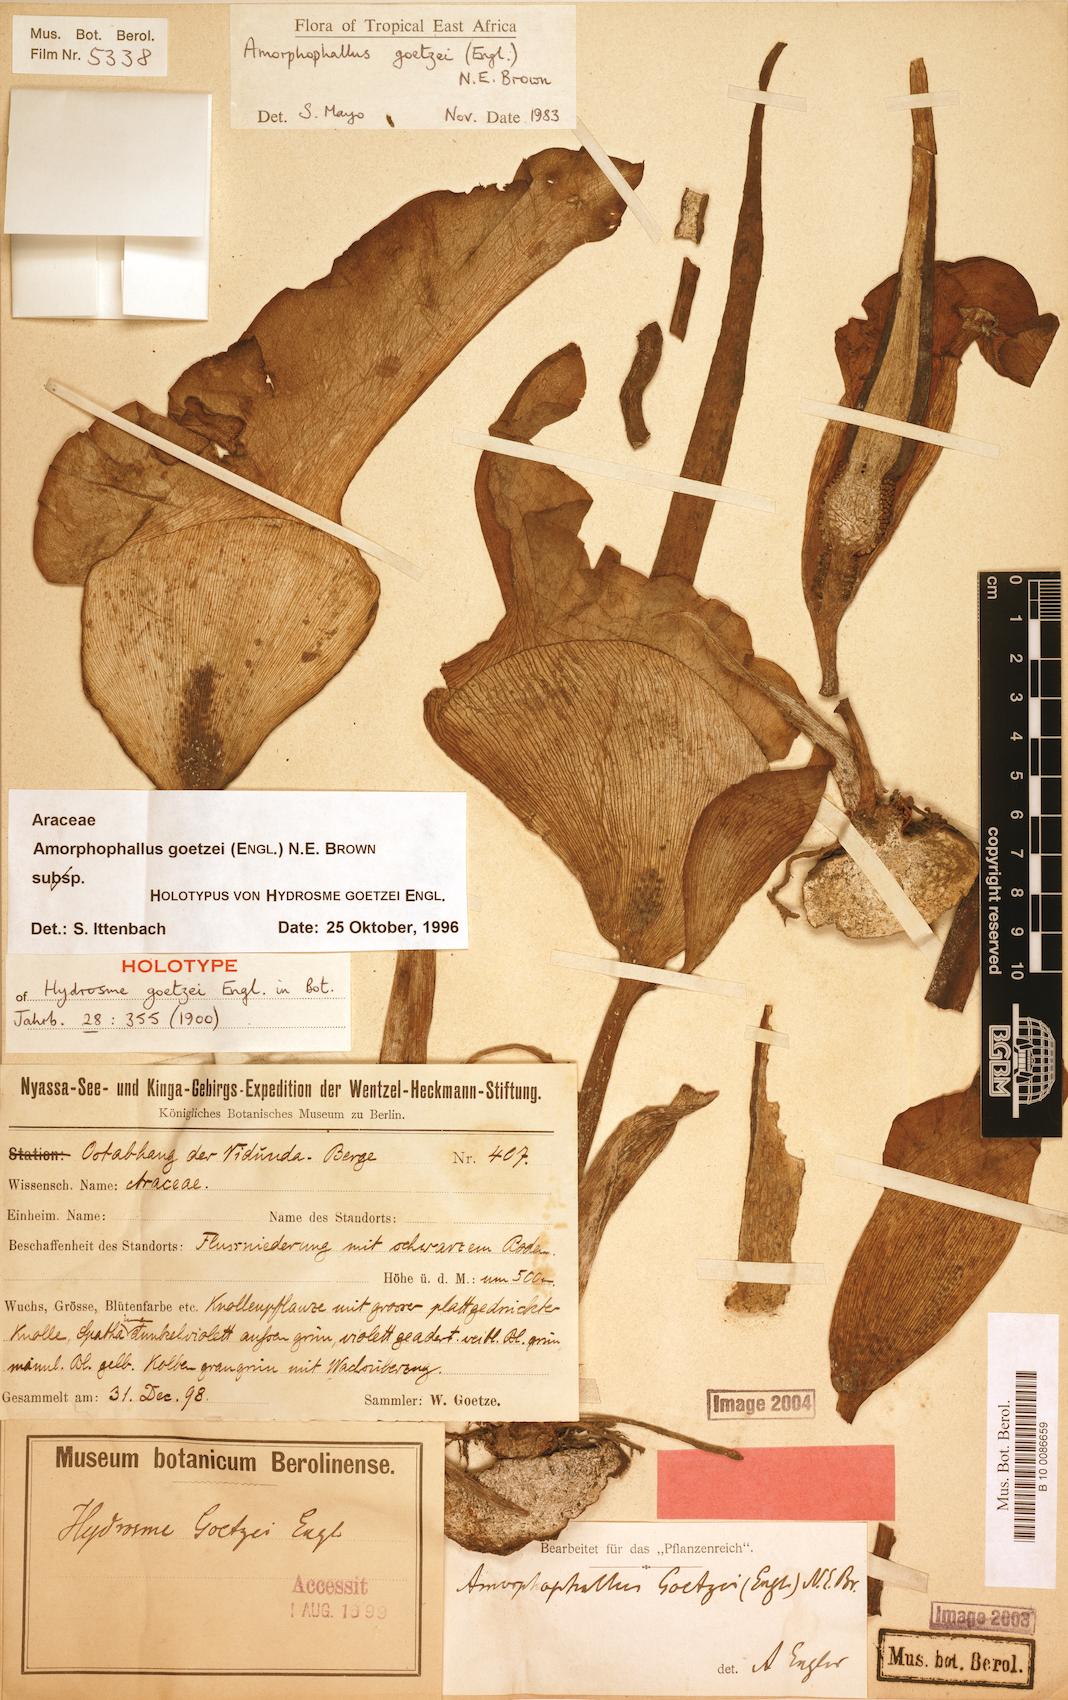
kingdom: Plantae
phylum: Tracheophyta
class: Liliopsida
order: Alismatales
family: Araceae
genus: Amorphophallus
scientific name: Amorphophallus goetzei
